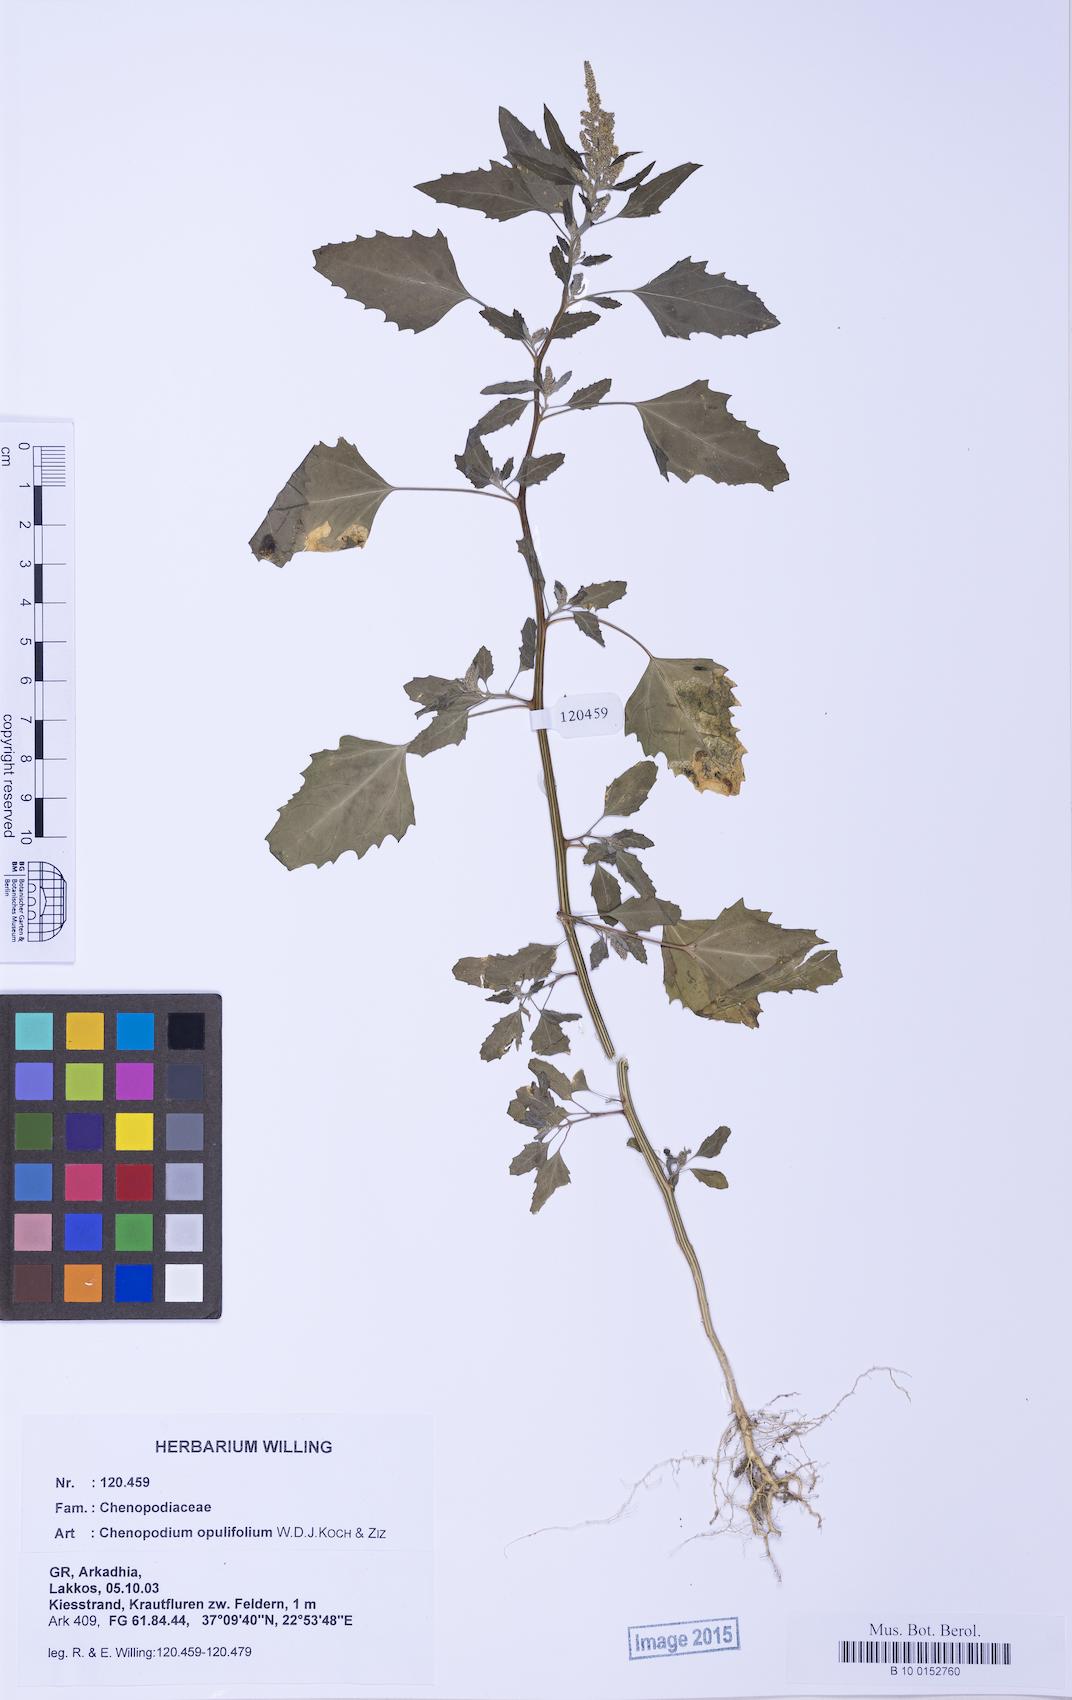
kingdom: Plantae
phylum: Tracheophyta
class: Magnoliopsida
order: Caryophyllales
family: Amaranthaceae
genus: Chenopodium
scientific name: Chenopodium album
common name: Fat-hen
